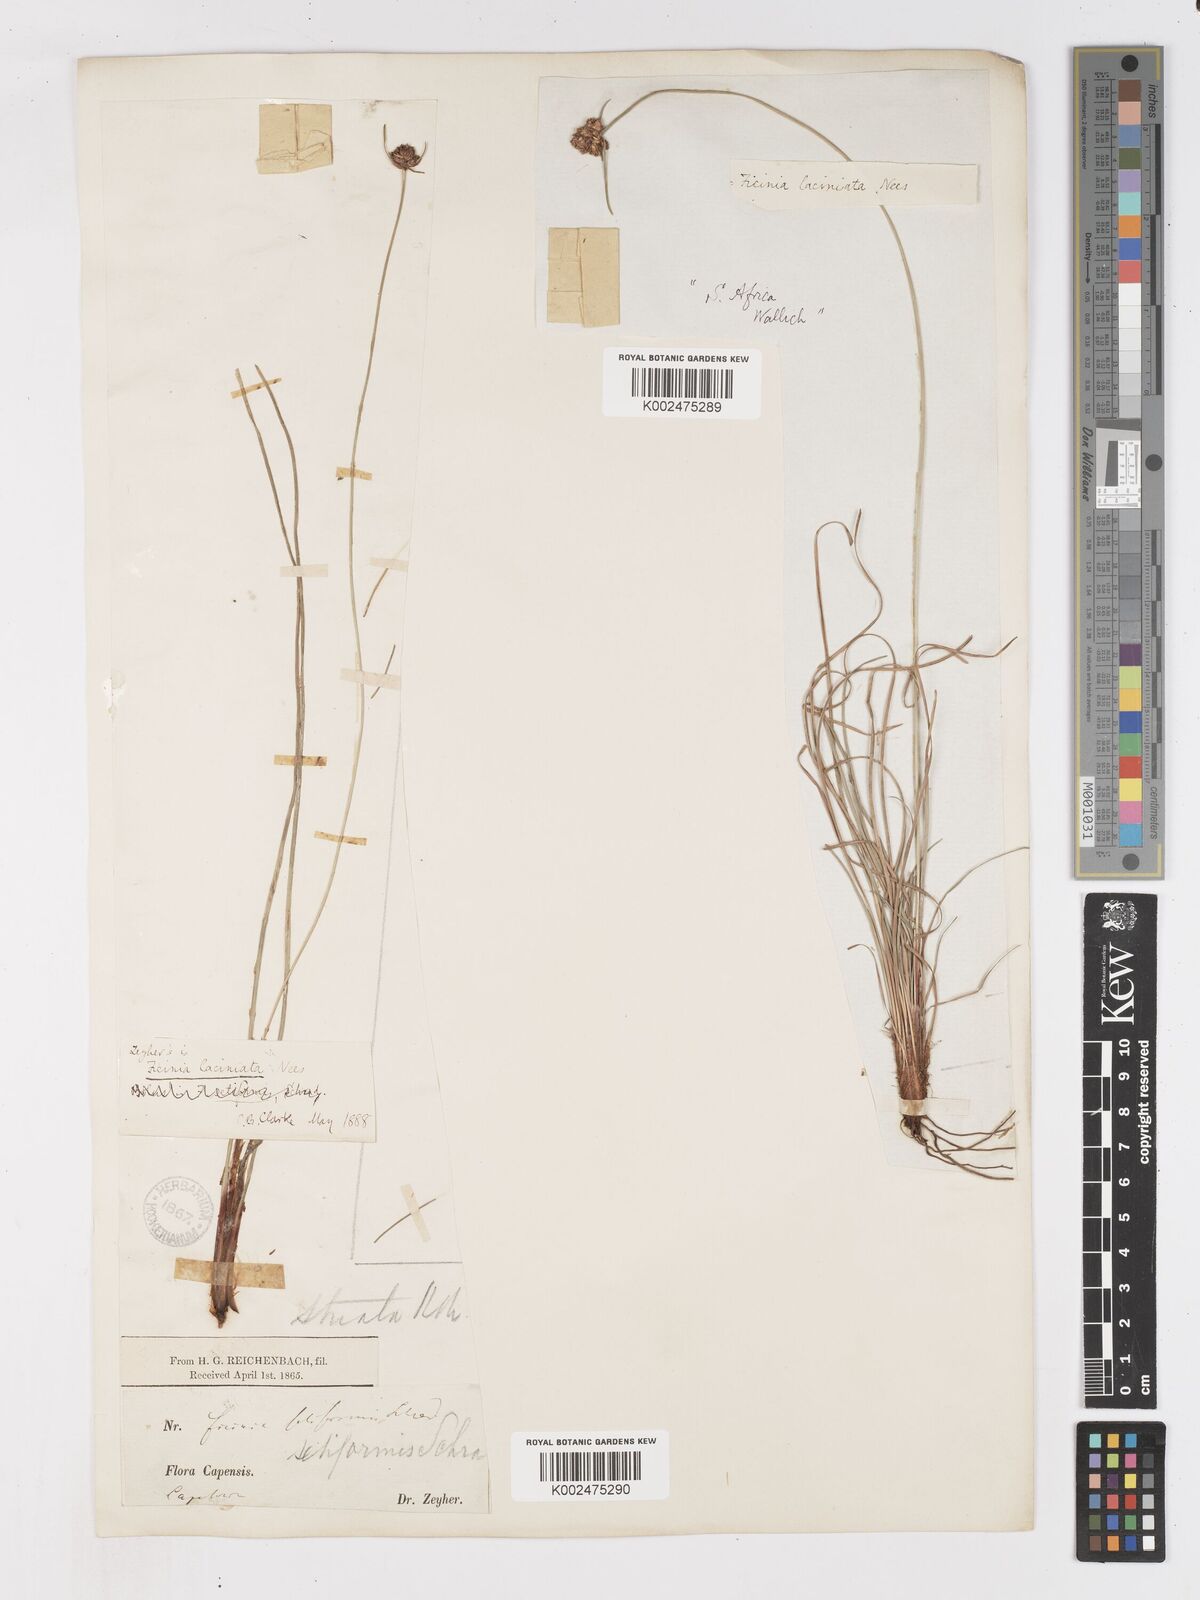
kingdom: Plantae
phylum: Tracheophyta
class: Liliopsida
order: Poales
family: Cyperaceae
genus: Ficinia
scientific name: Ficinia laciniata
